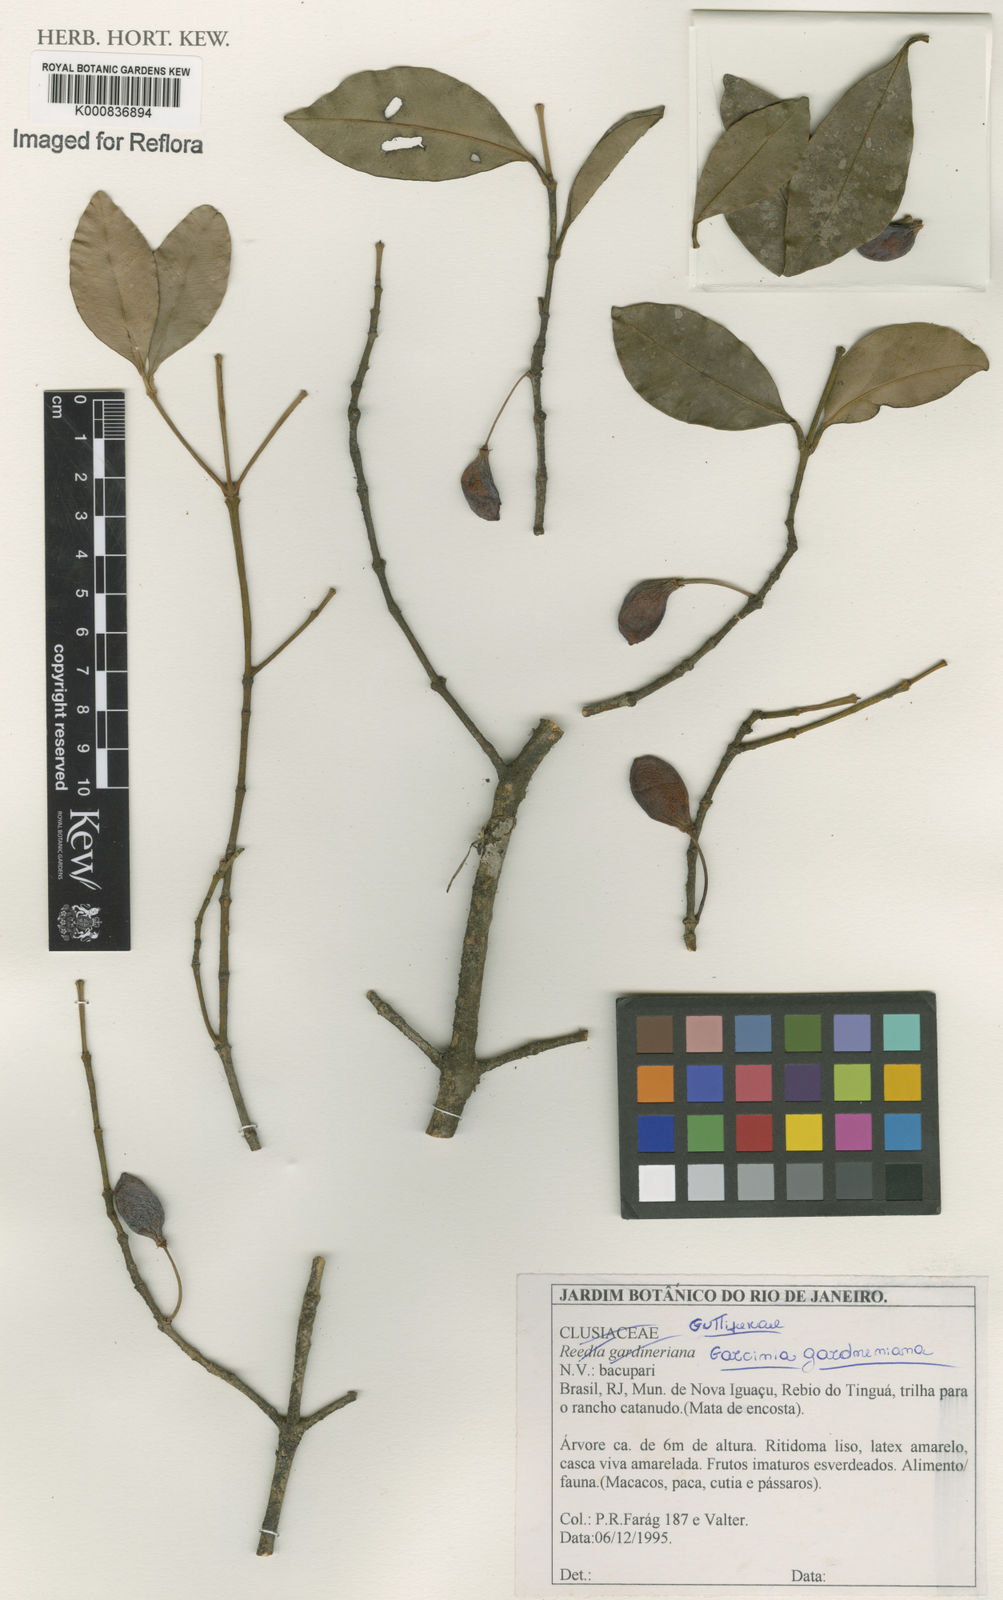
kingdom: Plantae
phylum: Tracheophyta
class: Magnoliopsida
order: Malpighiales
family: Clusiaceae
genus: Garcinia
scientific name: Garcinia gardneriana
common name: Achacha
